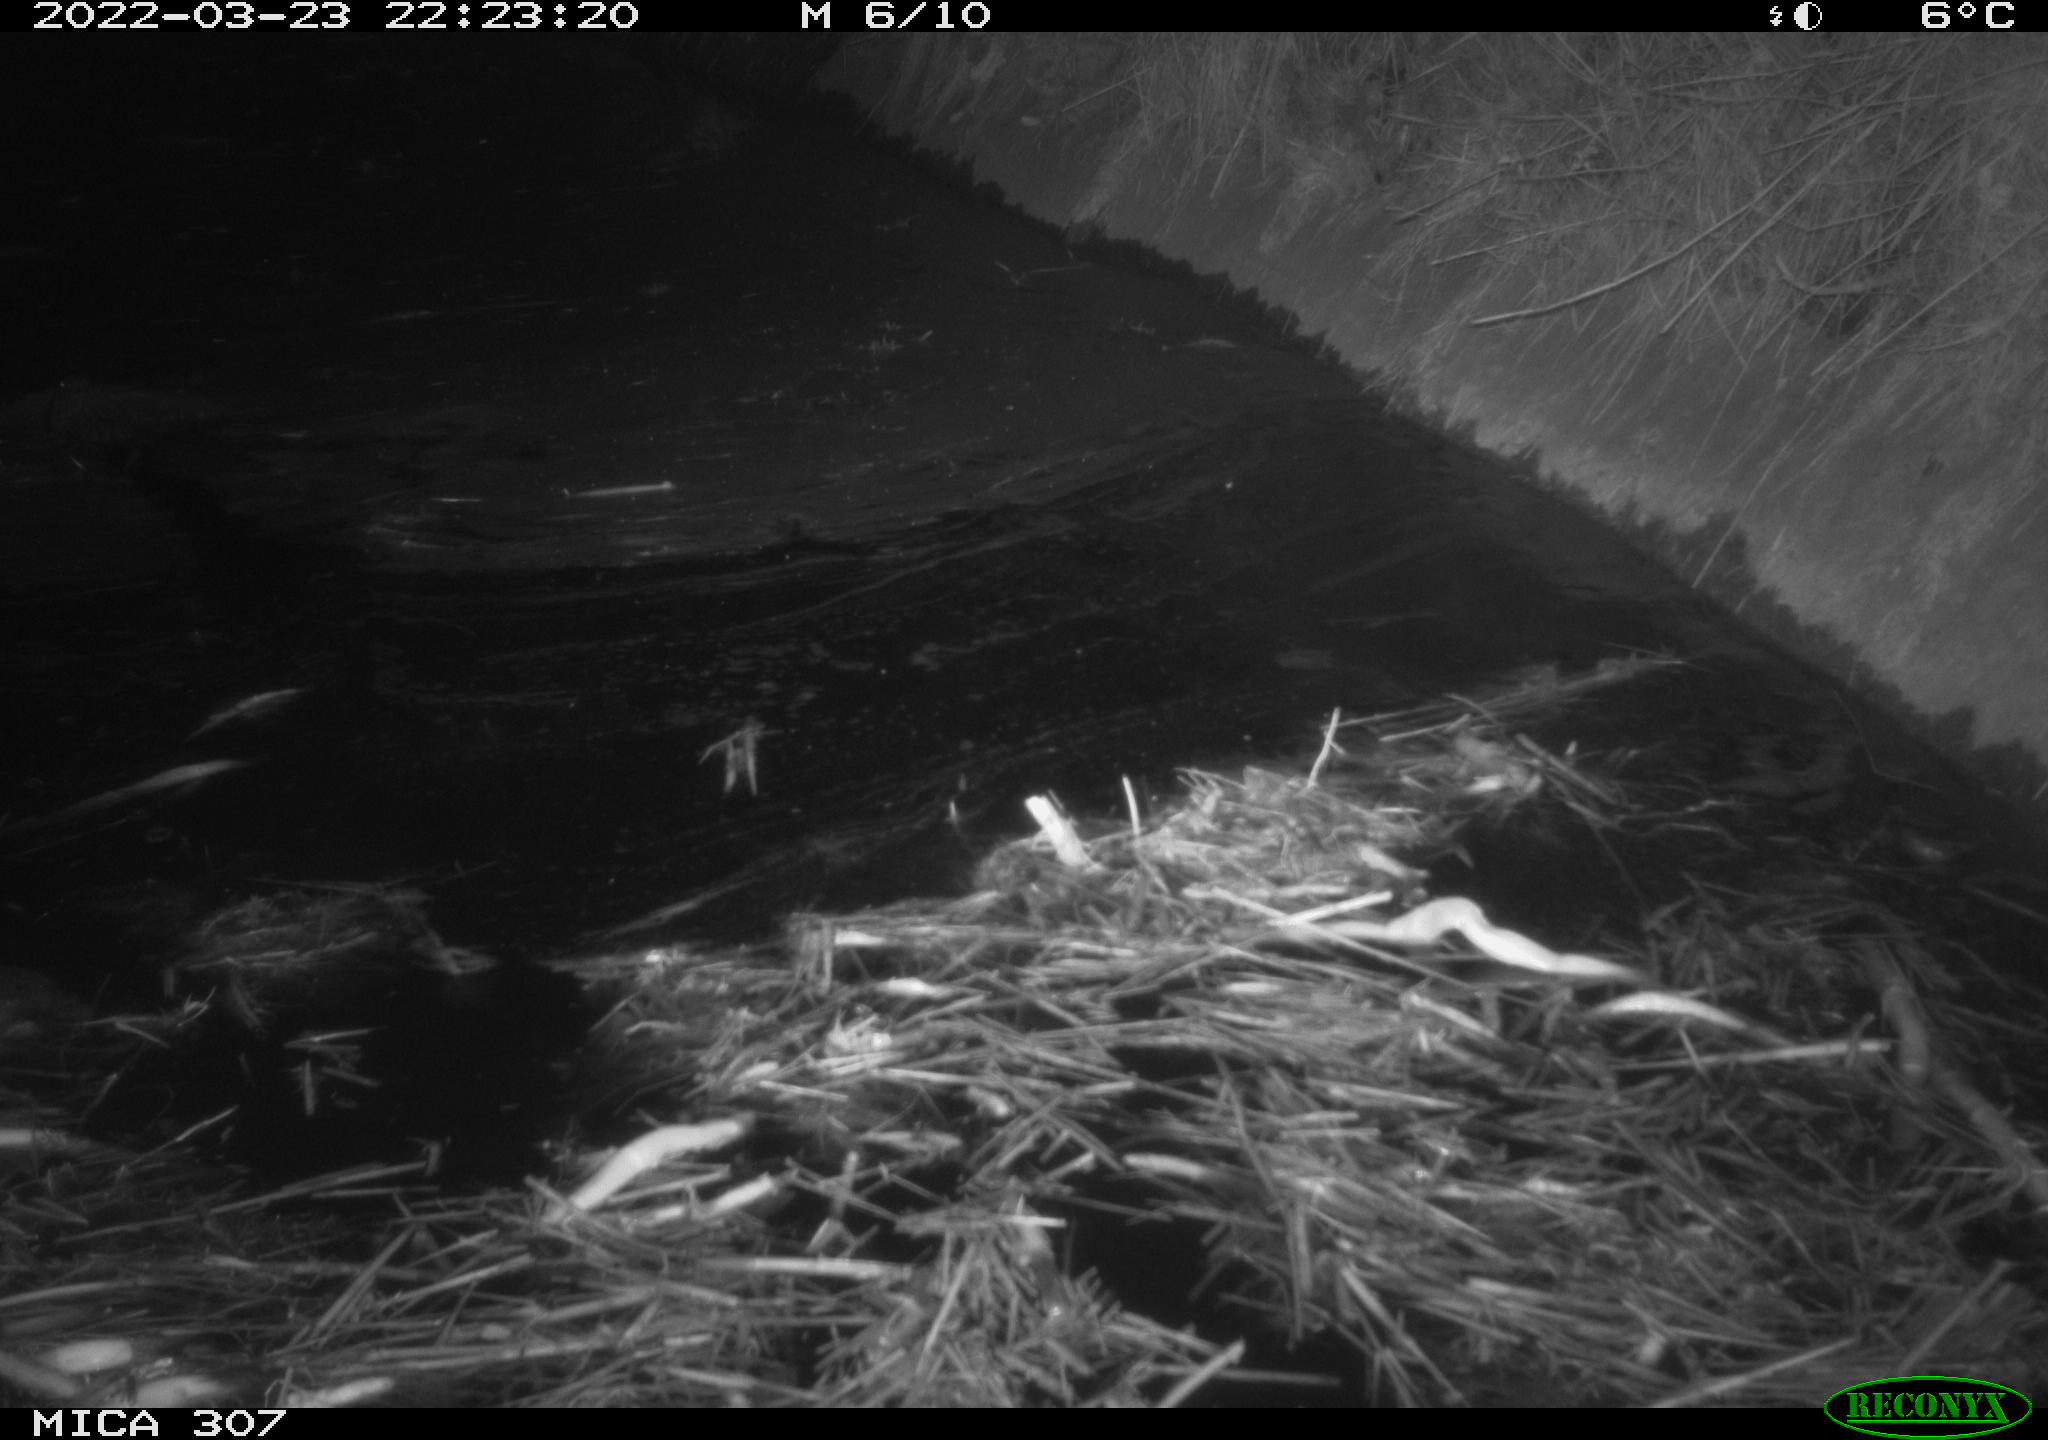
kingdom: Animalia
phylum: Chordata
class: Mammalia
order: Rodentia
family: Cricetidae
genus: Ondatra
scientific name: Ondatra zibethicus
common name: Muskrat
